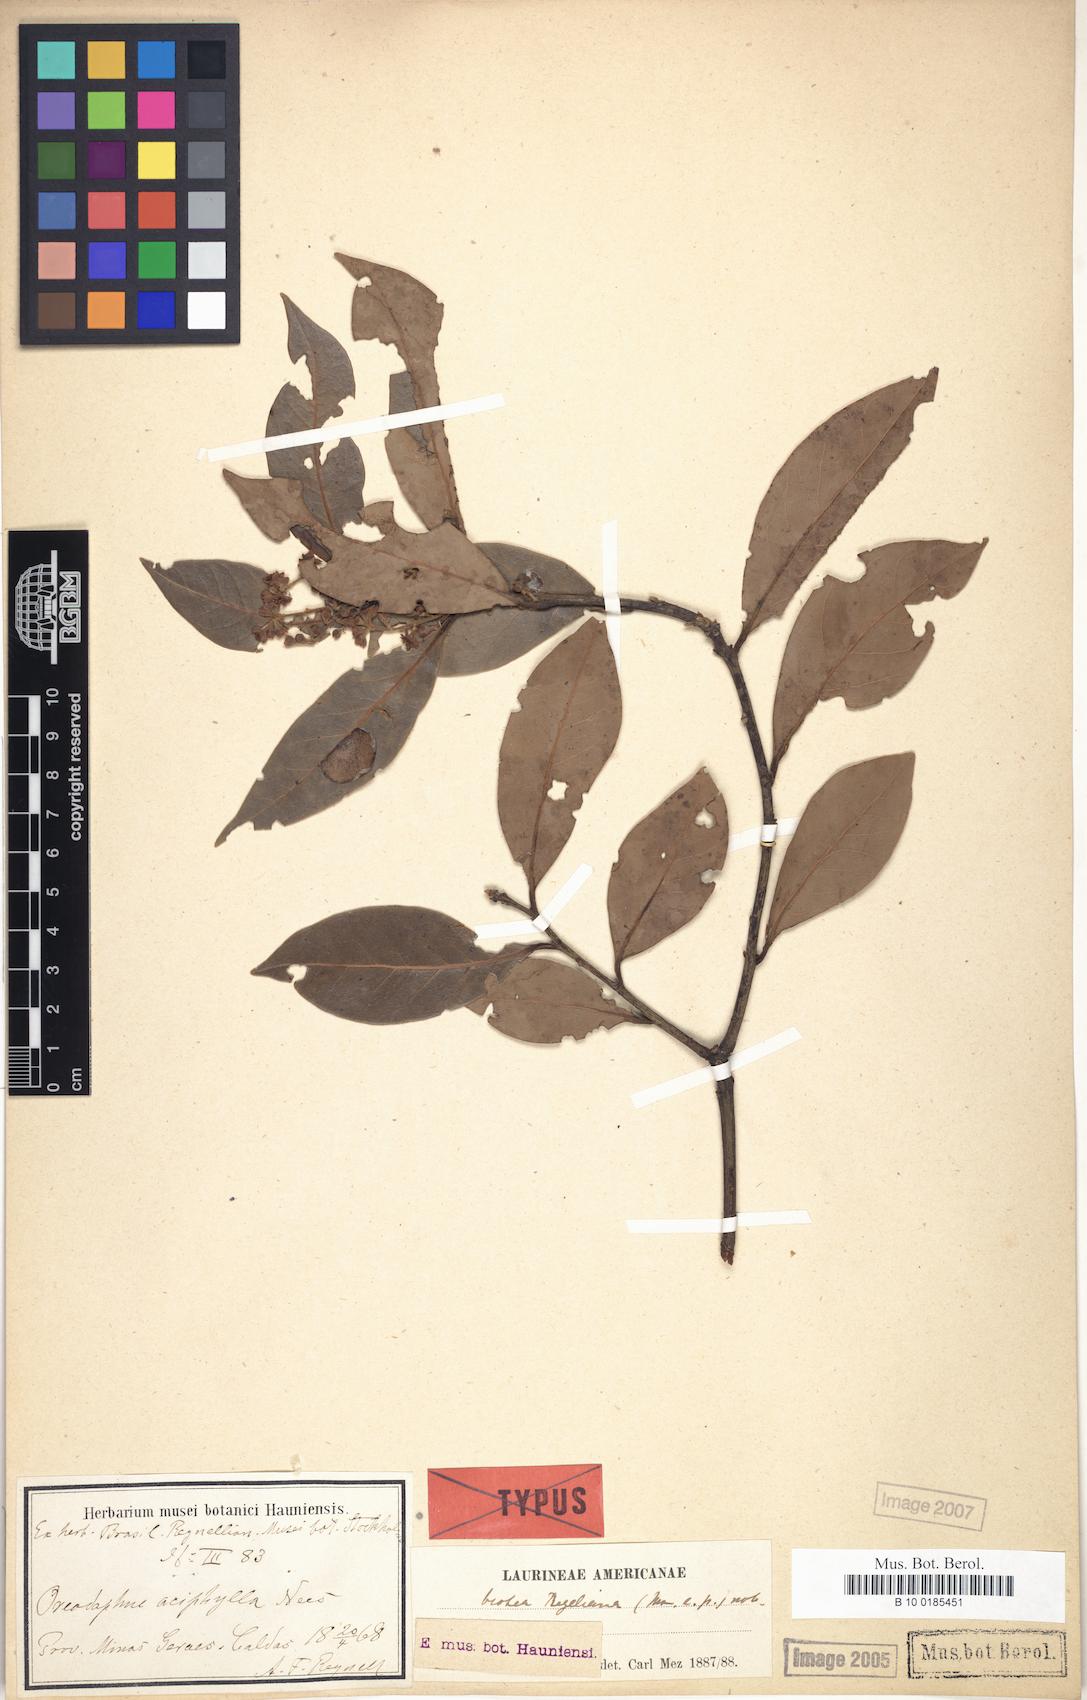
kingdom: Plantae
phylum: Tracheophyta
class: Magnoliopsida
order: Laurales
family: Lauraceae
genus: Ocotea
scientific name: Ocotea lancifolia
